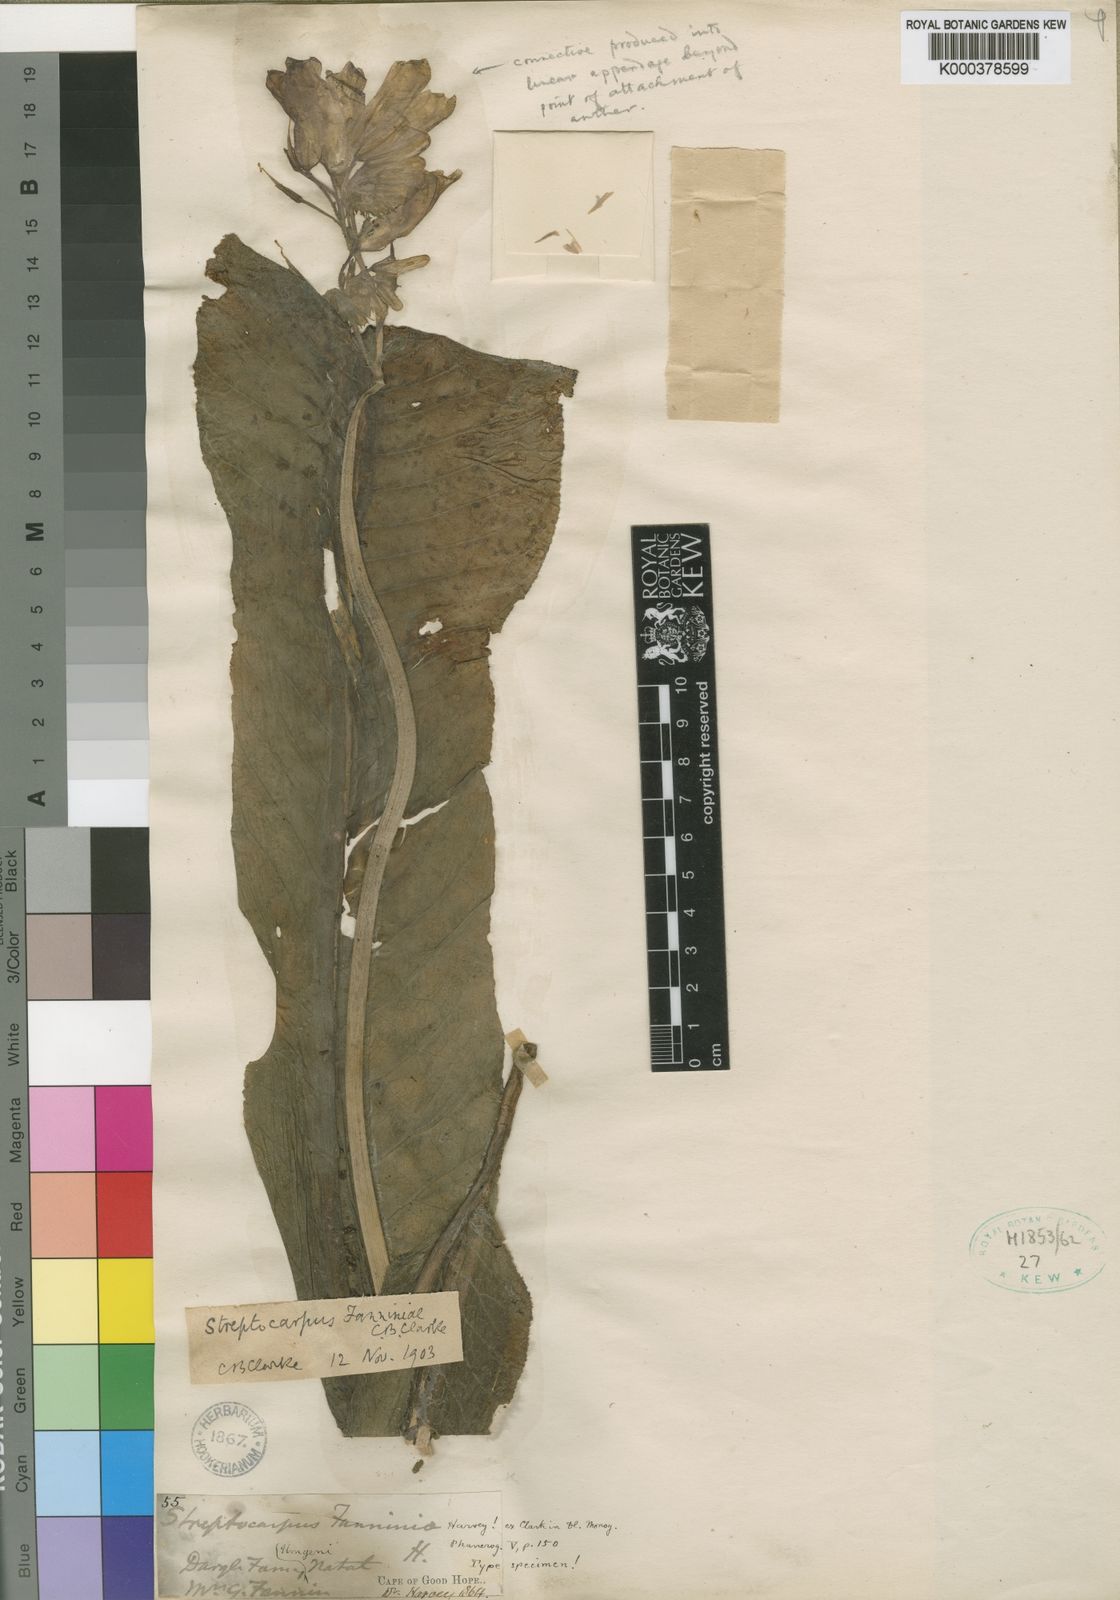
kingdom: Plantae
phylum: Tracheophyta
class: Magnoliopsida
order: Lamiales
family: Gesneriaceae
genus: Streptocarpus
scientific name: Streptocarpus fanniniae
